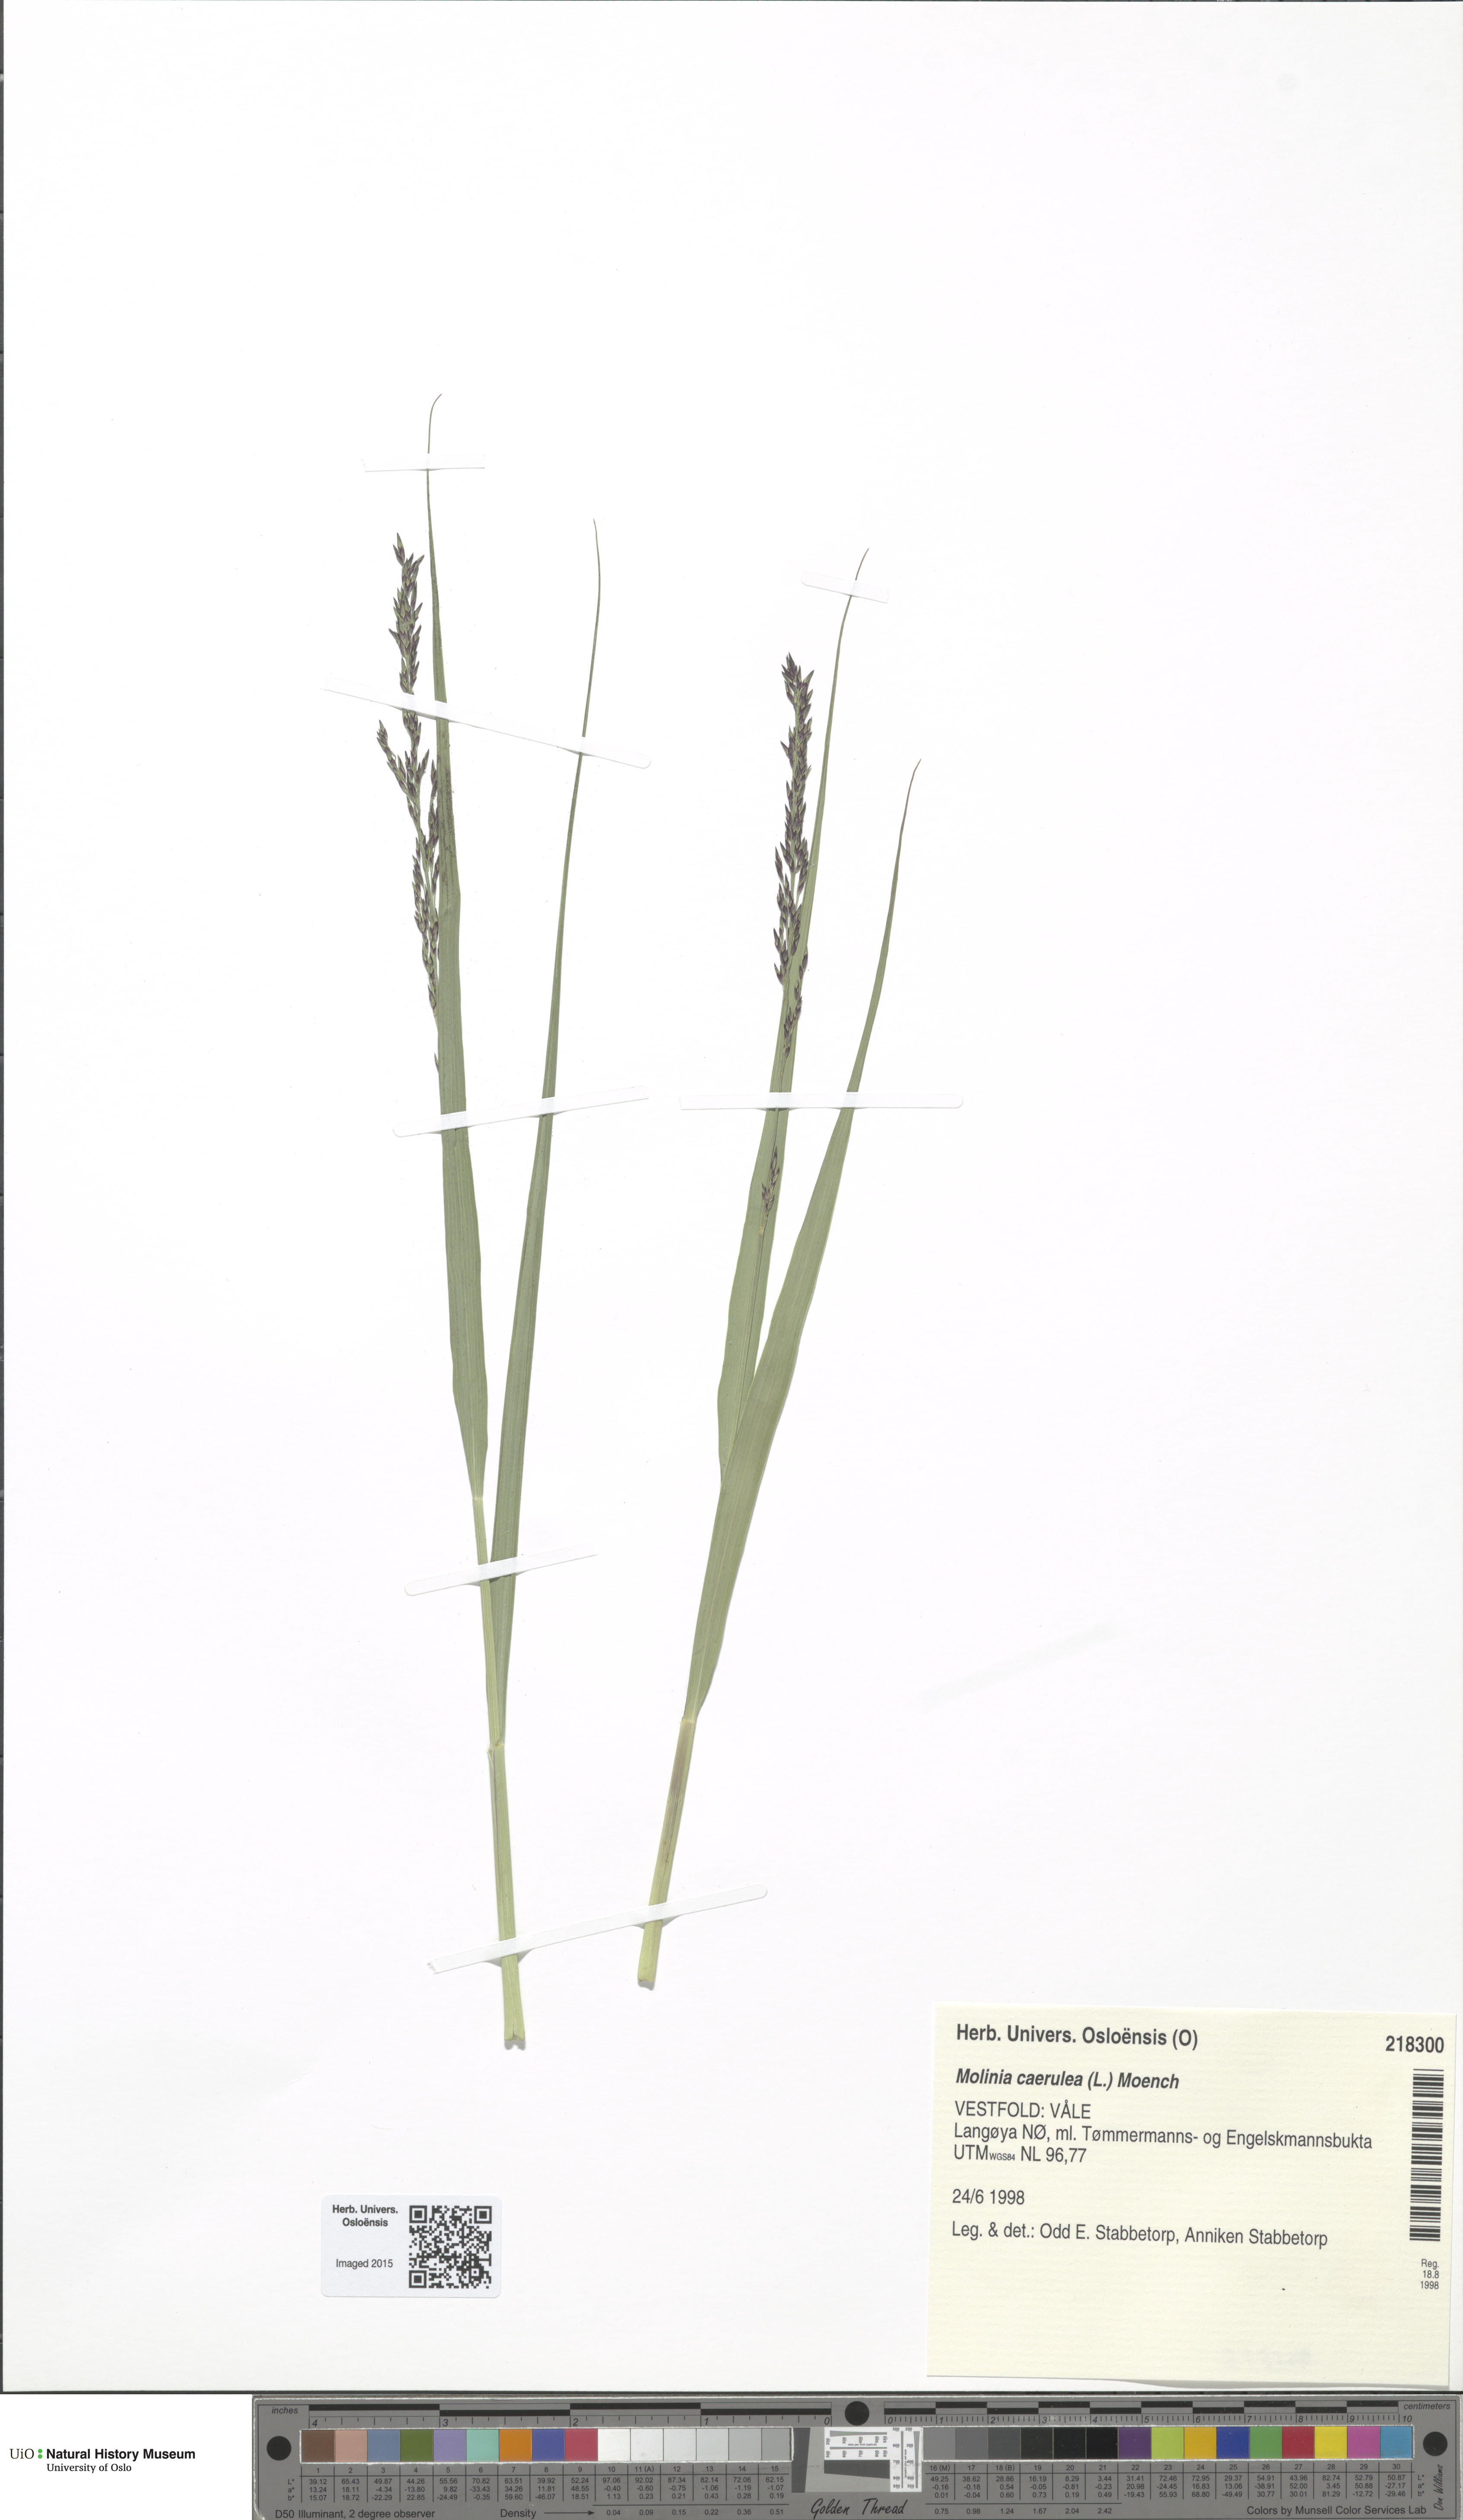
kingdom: Plantae
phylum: Tracheophyta
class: Liliopsida
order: Poales
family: Poaceae
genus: Molinia
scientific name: Molinia caerulea
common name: Purple moor-grass
